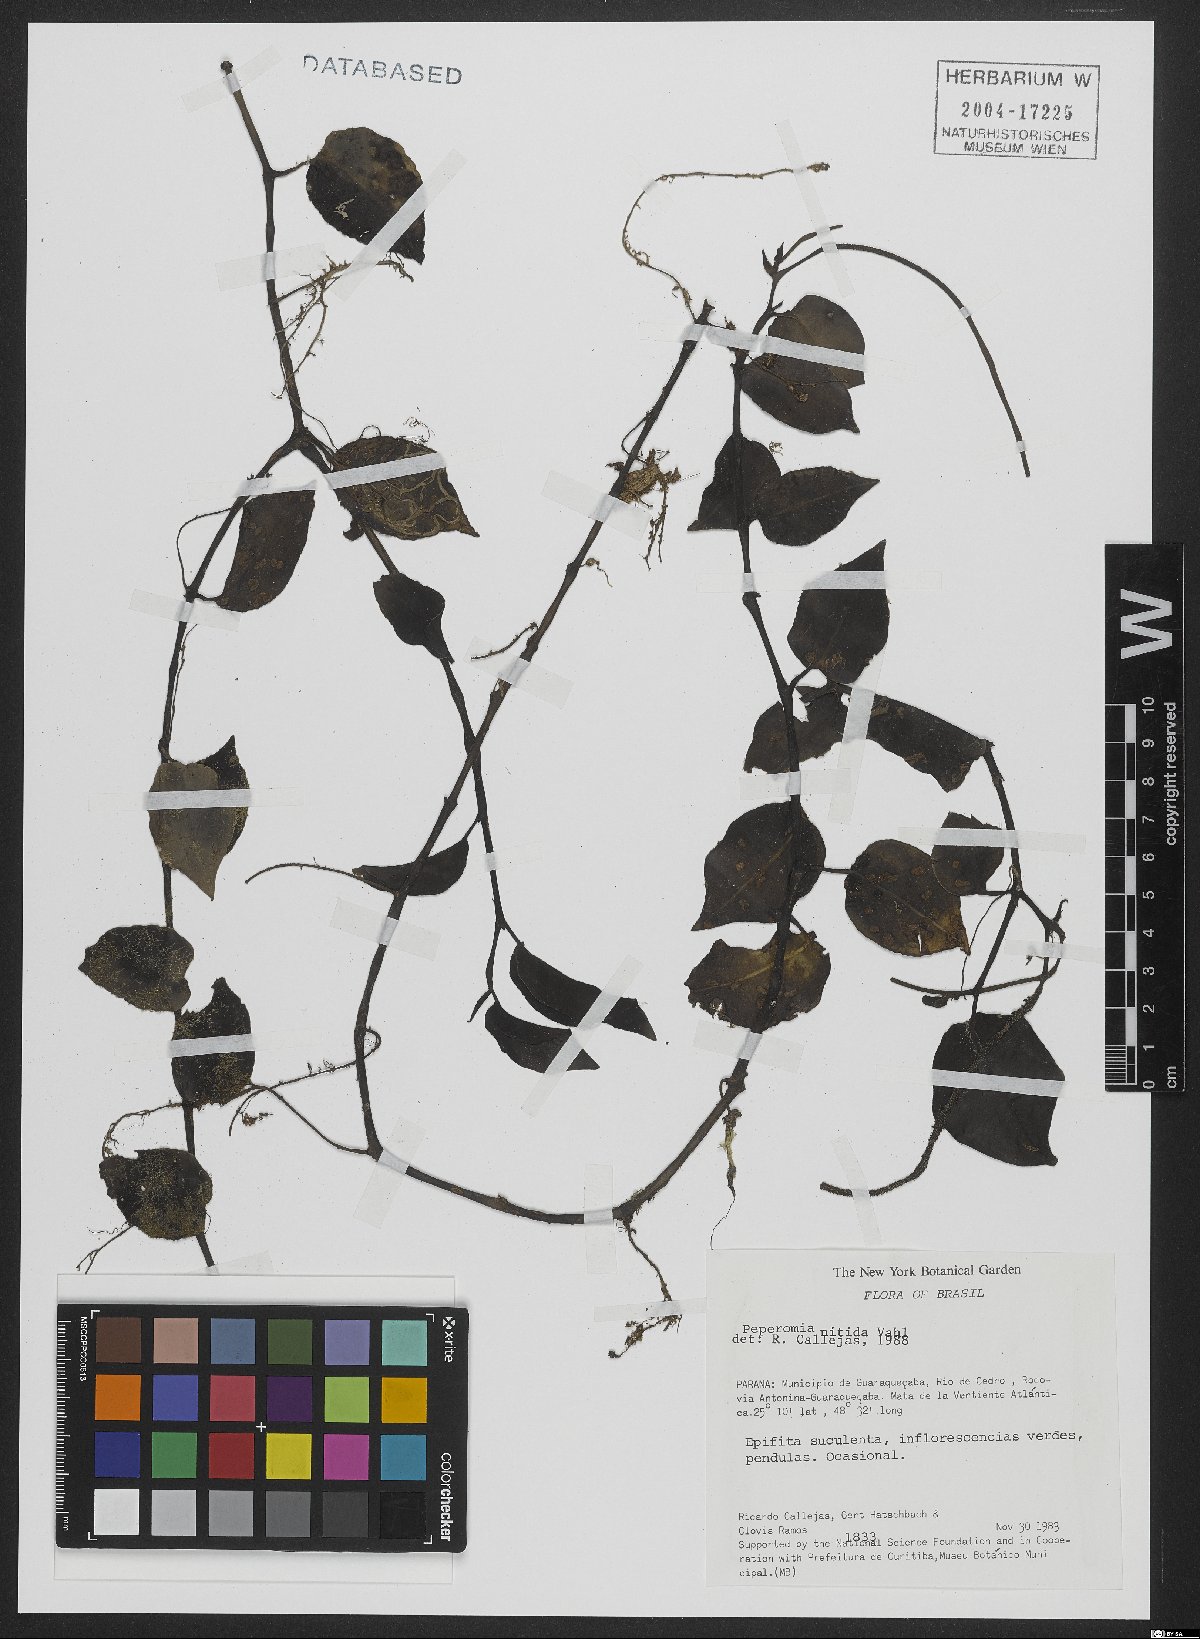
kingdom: Plantae
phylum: Tracheophyta
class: Magnoliopsida
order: Piperales
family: Piperaceae
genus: Peperomia
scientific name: Peperomia nitida
